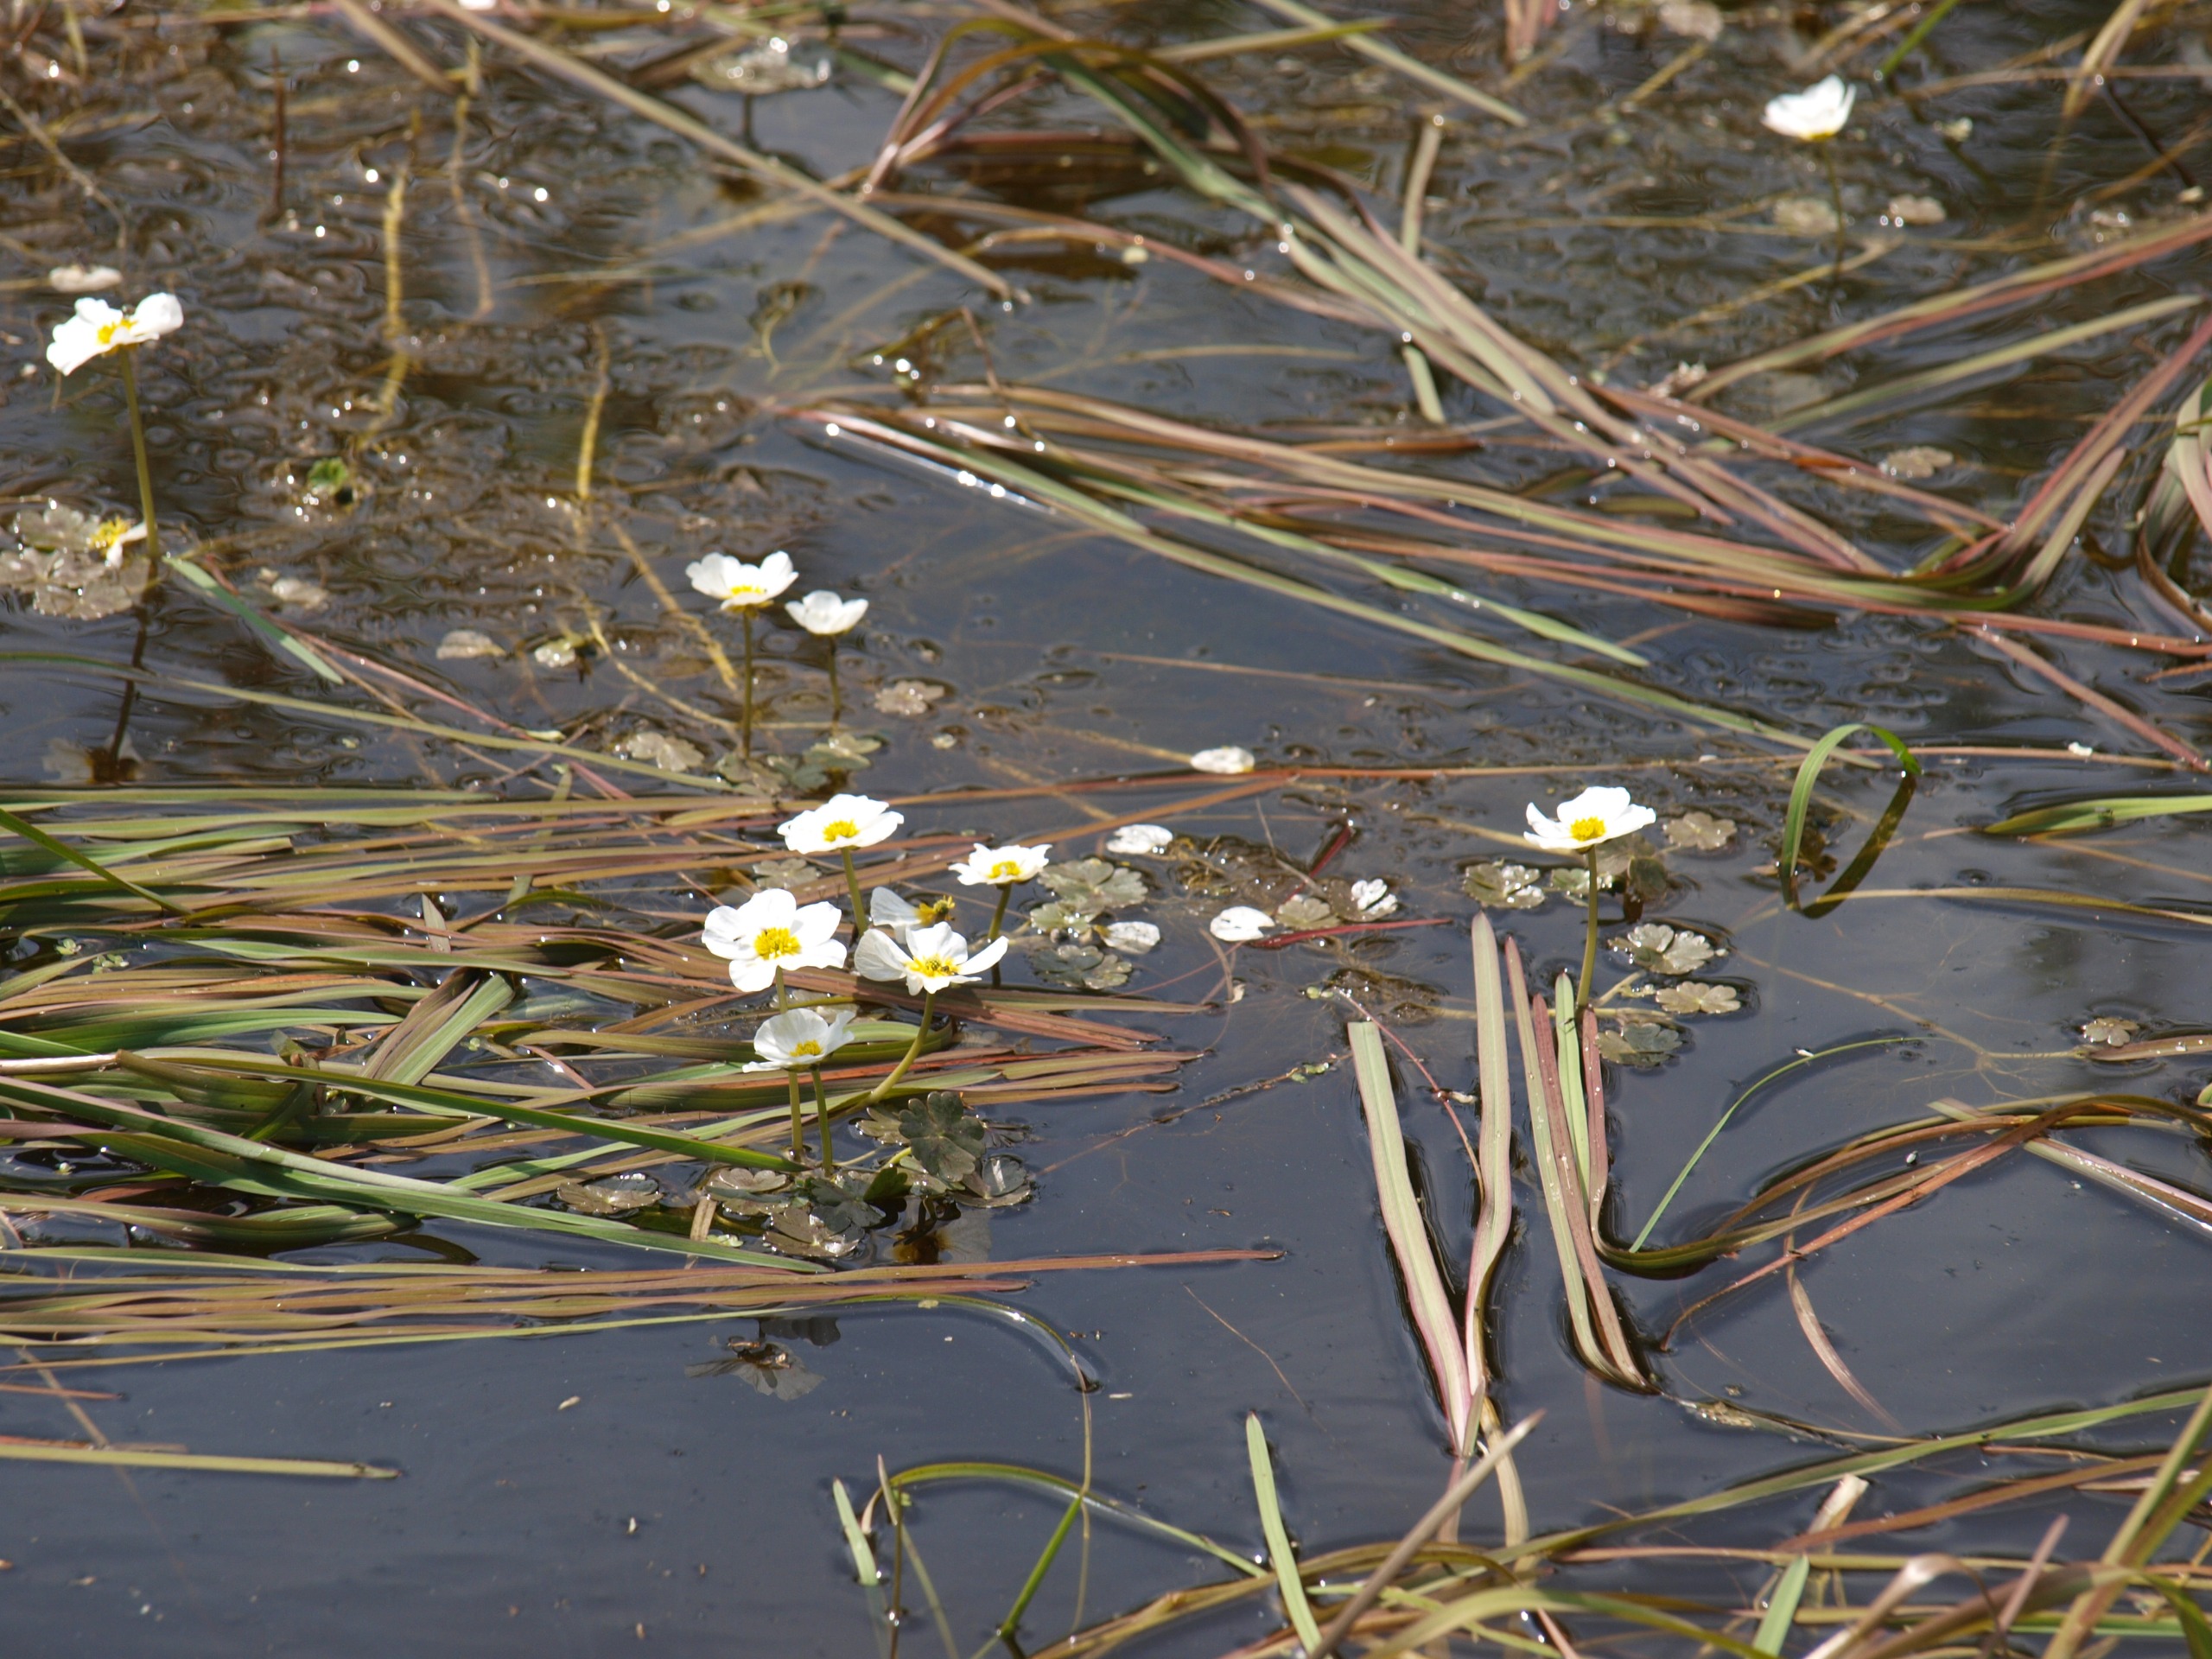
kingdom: Plantae
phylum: Tracheophyta
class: Magnoliopsida
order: Ranunculales
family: Ranunculaceae
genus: Ranunculus
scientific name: Ranunculus aquatilis
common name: Almindelig vandranunkel
